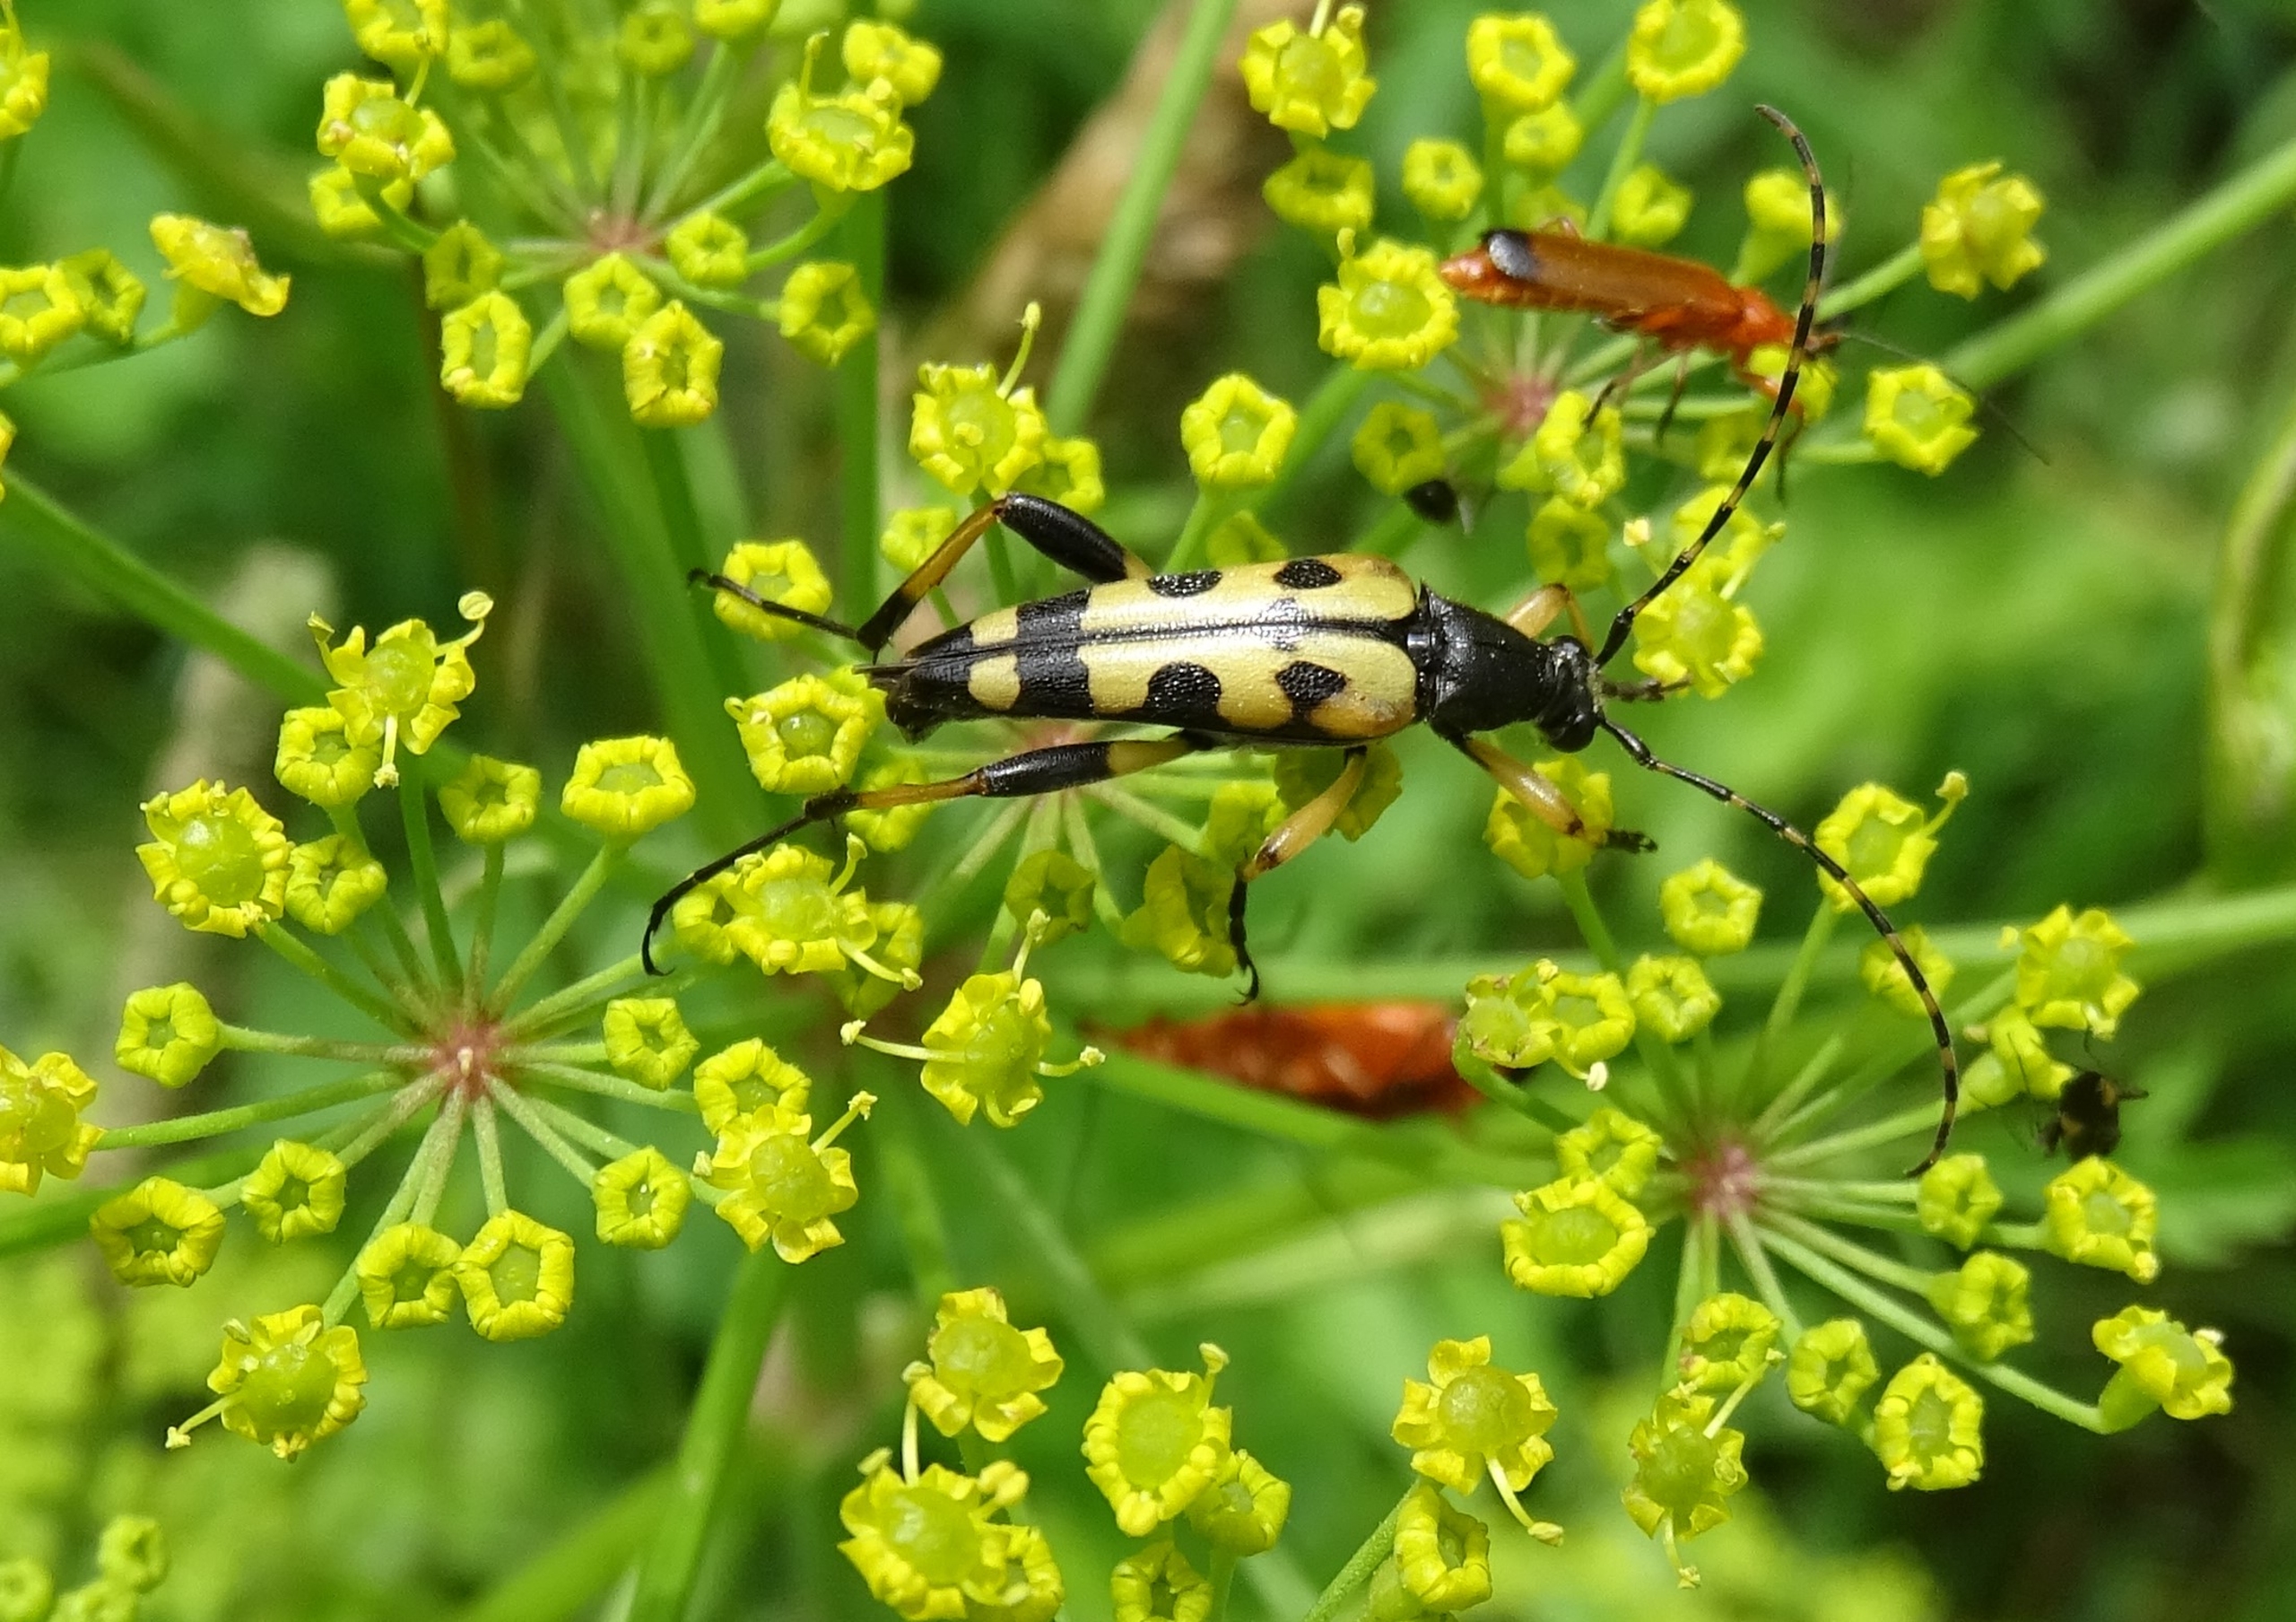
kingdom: Animalia
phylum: Arthropoda
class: Insecta
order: Coleoptera
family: Cerambycidae
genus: Rutpela
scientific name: Rutpela maculata
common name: Sydlig blomsterbuk
